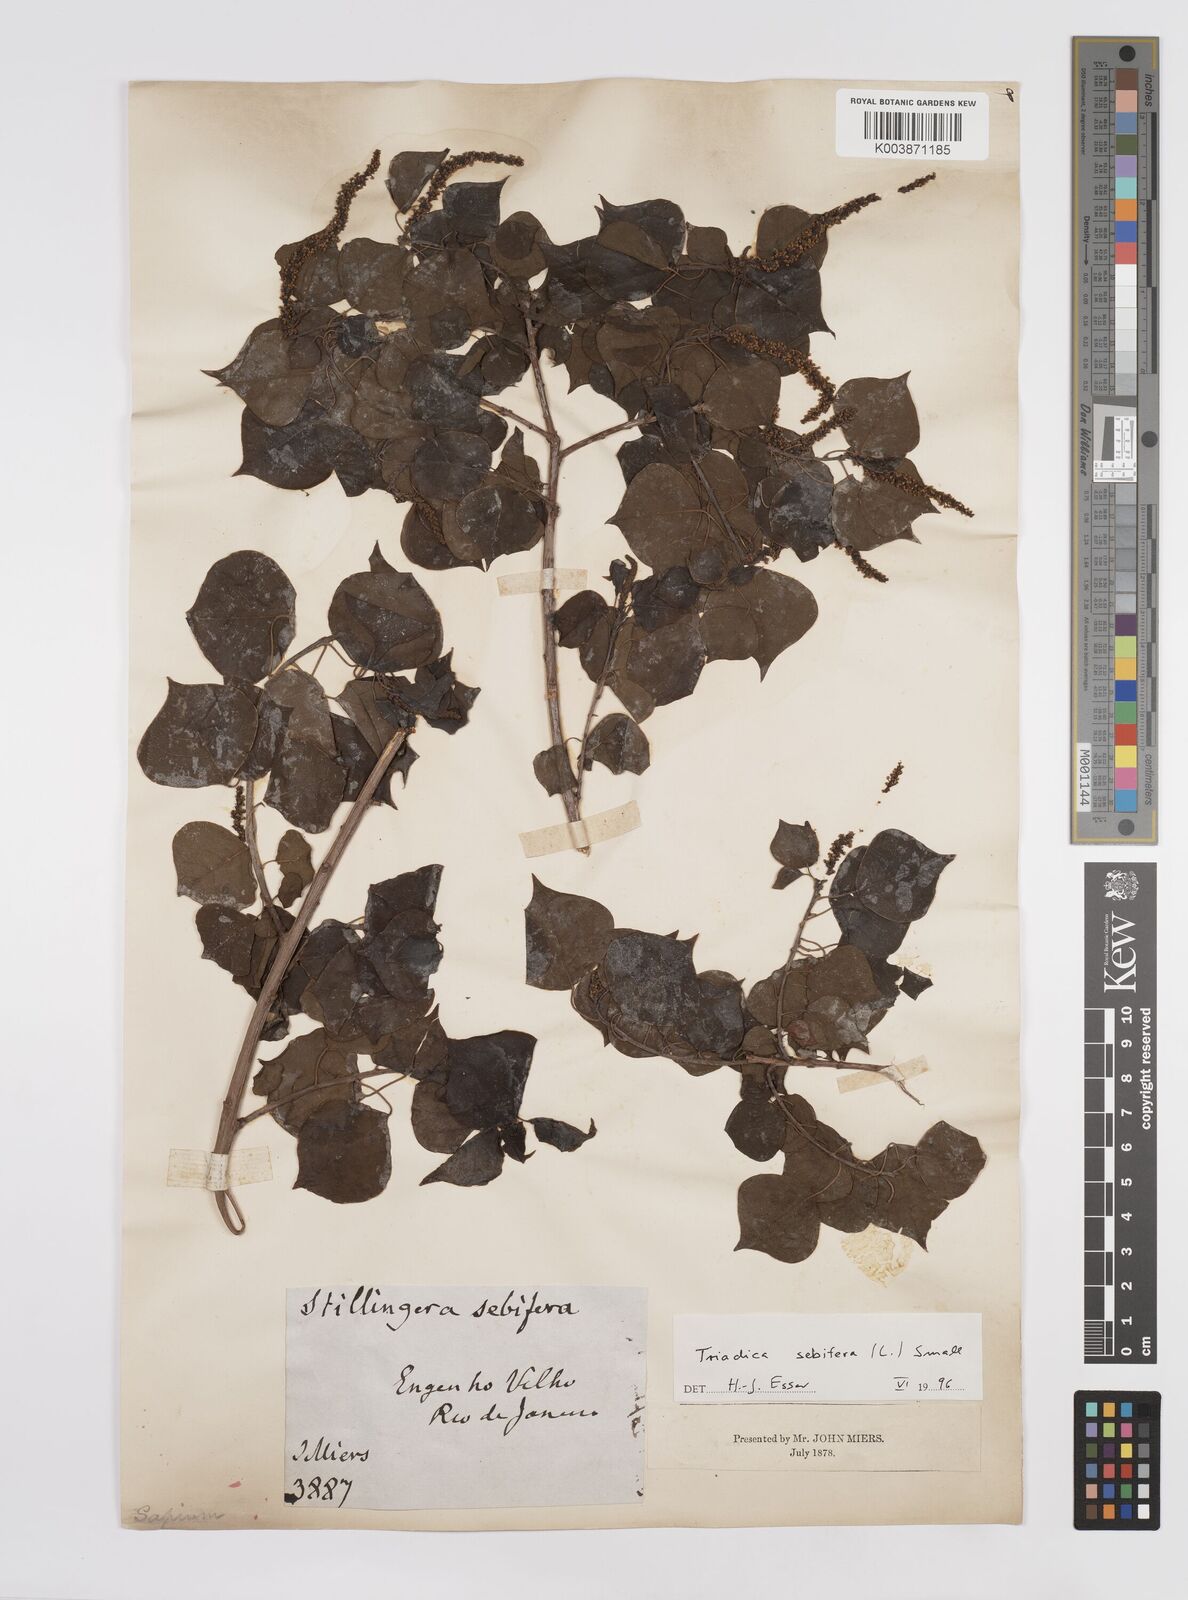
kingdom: Plantae
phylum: Tracheophyta
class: Magnoliopsida
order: Malpighiales
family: Euphorbiaceae
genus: Triadica
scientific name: Triadica sebifera
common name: Chinese tallow
